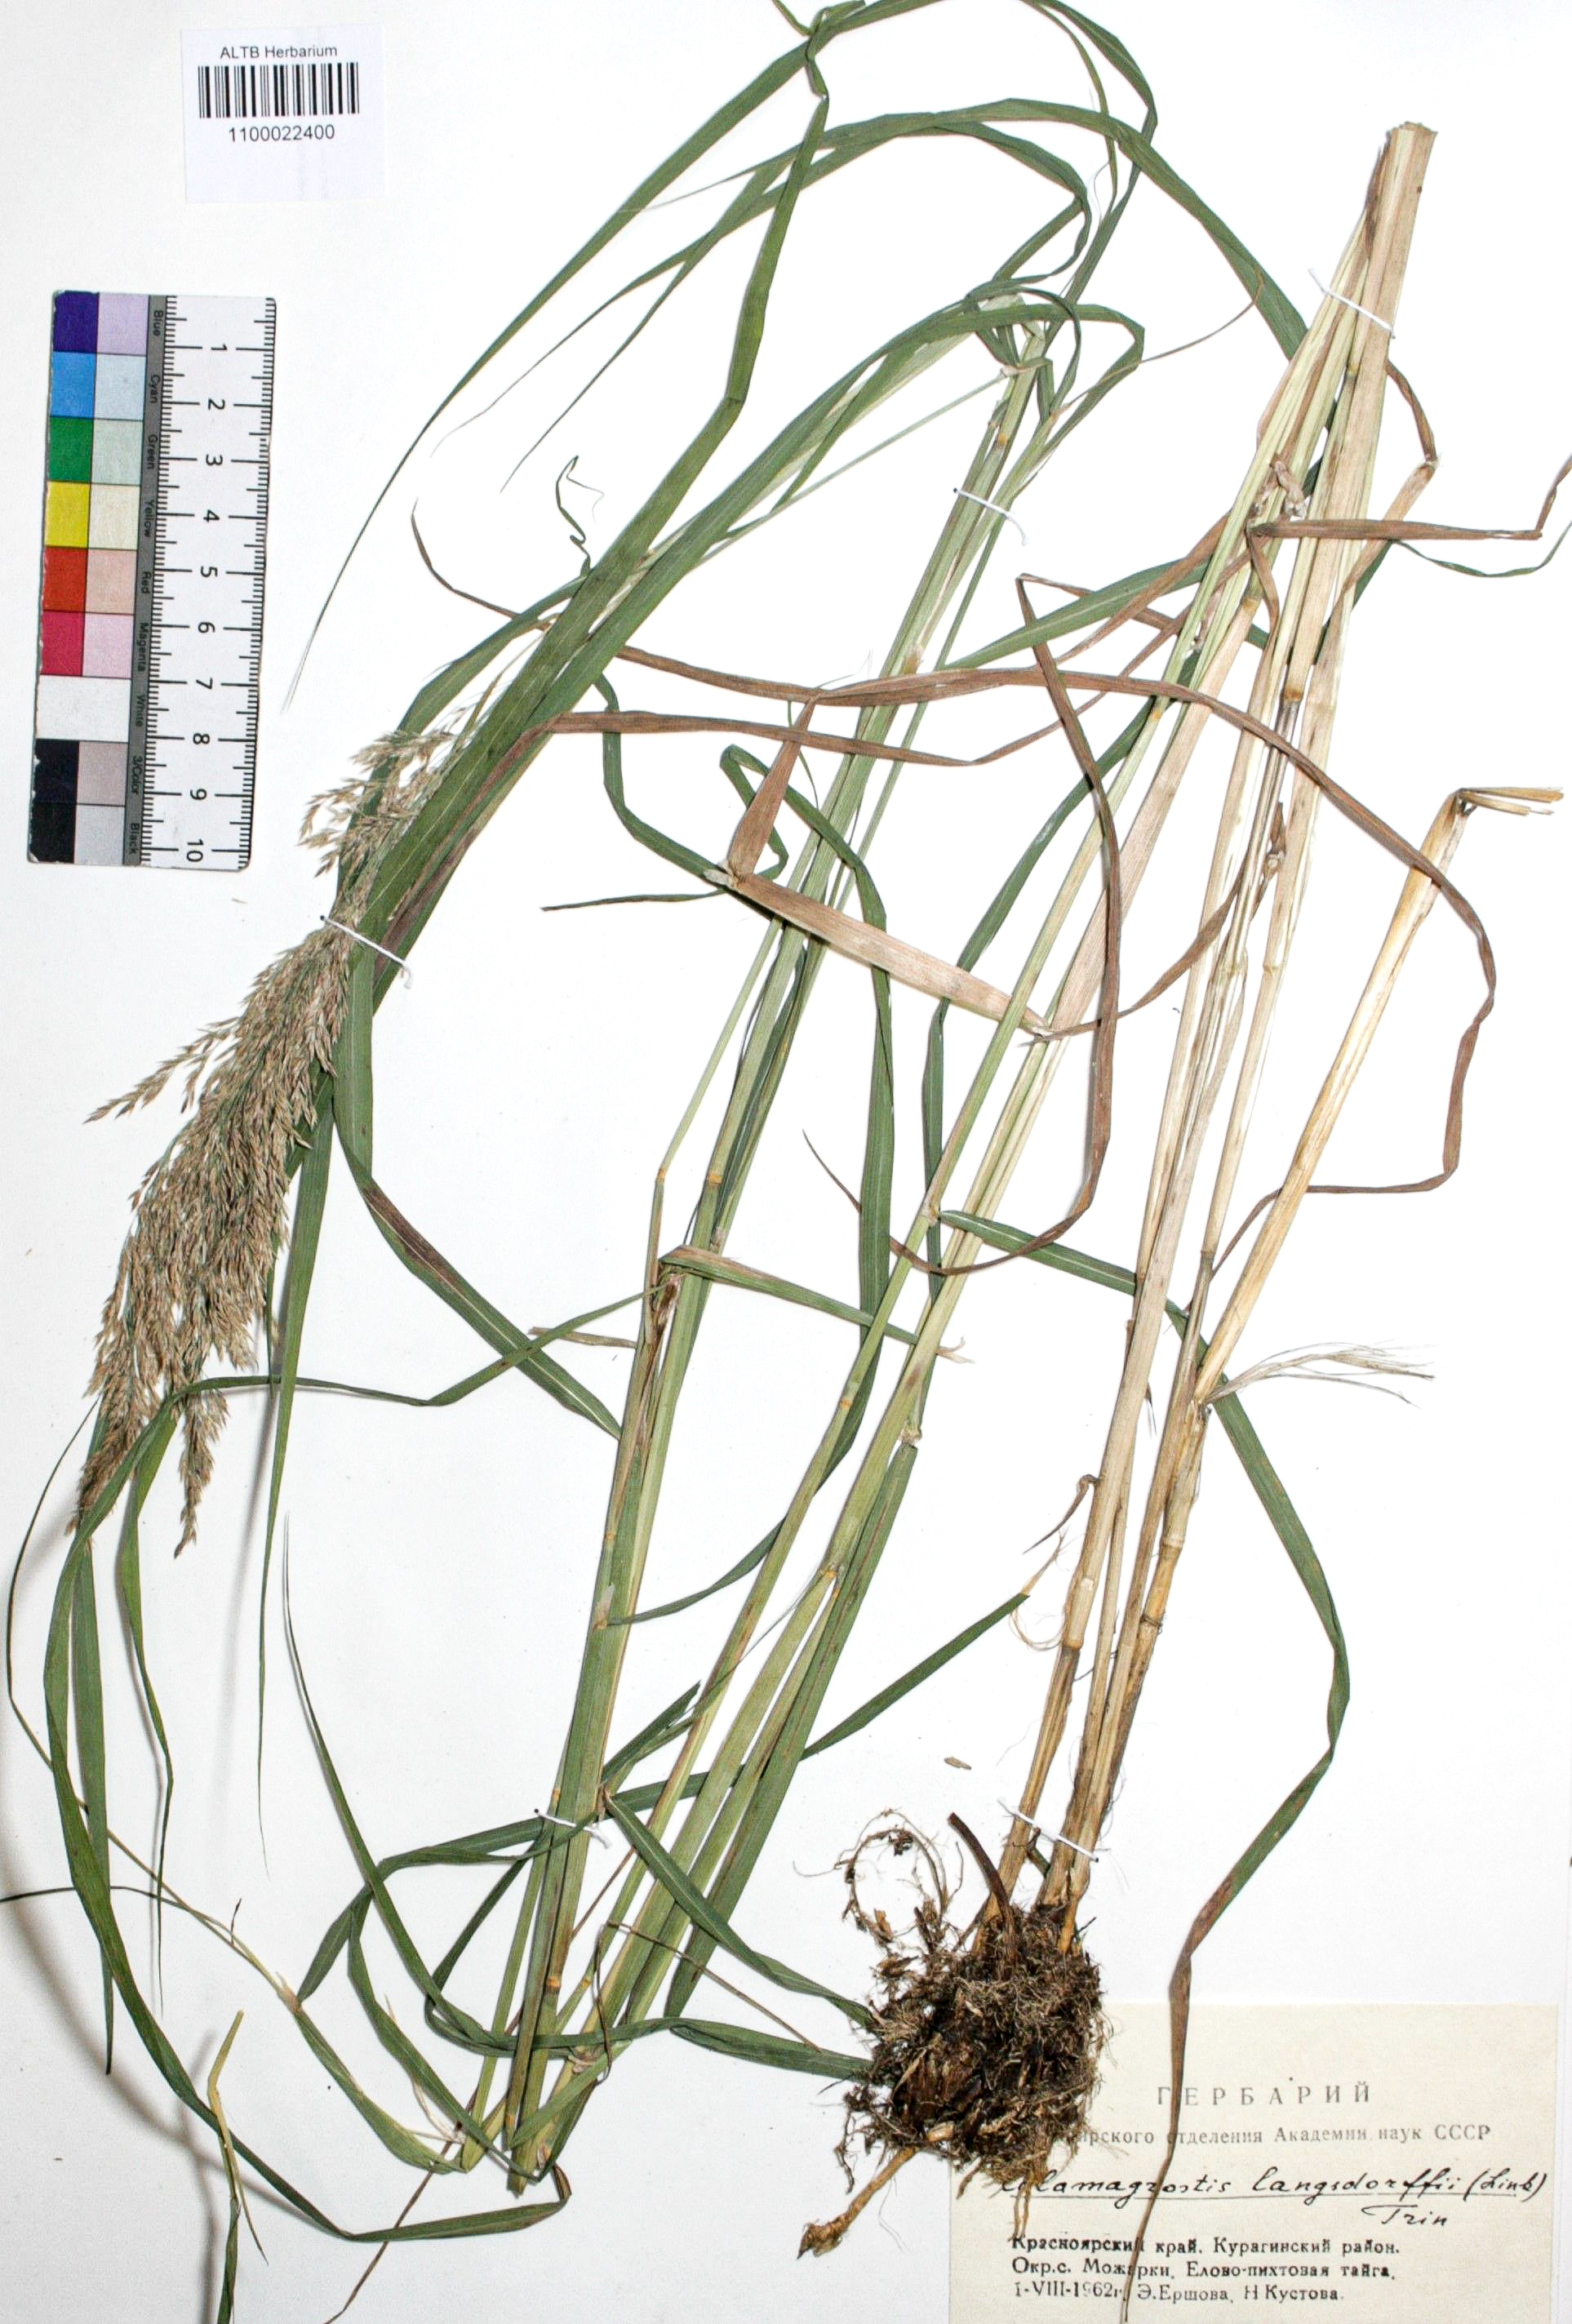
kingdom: Plantae
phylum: Tracheophyta
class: Liliopsida
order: Poales
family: Poaceae
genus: Calamagrostis
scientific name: Calamagrostis purpurea
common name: Scandinavian small-reed
